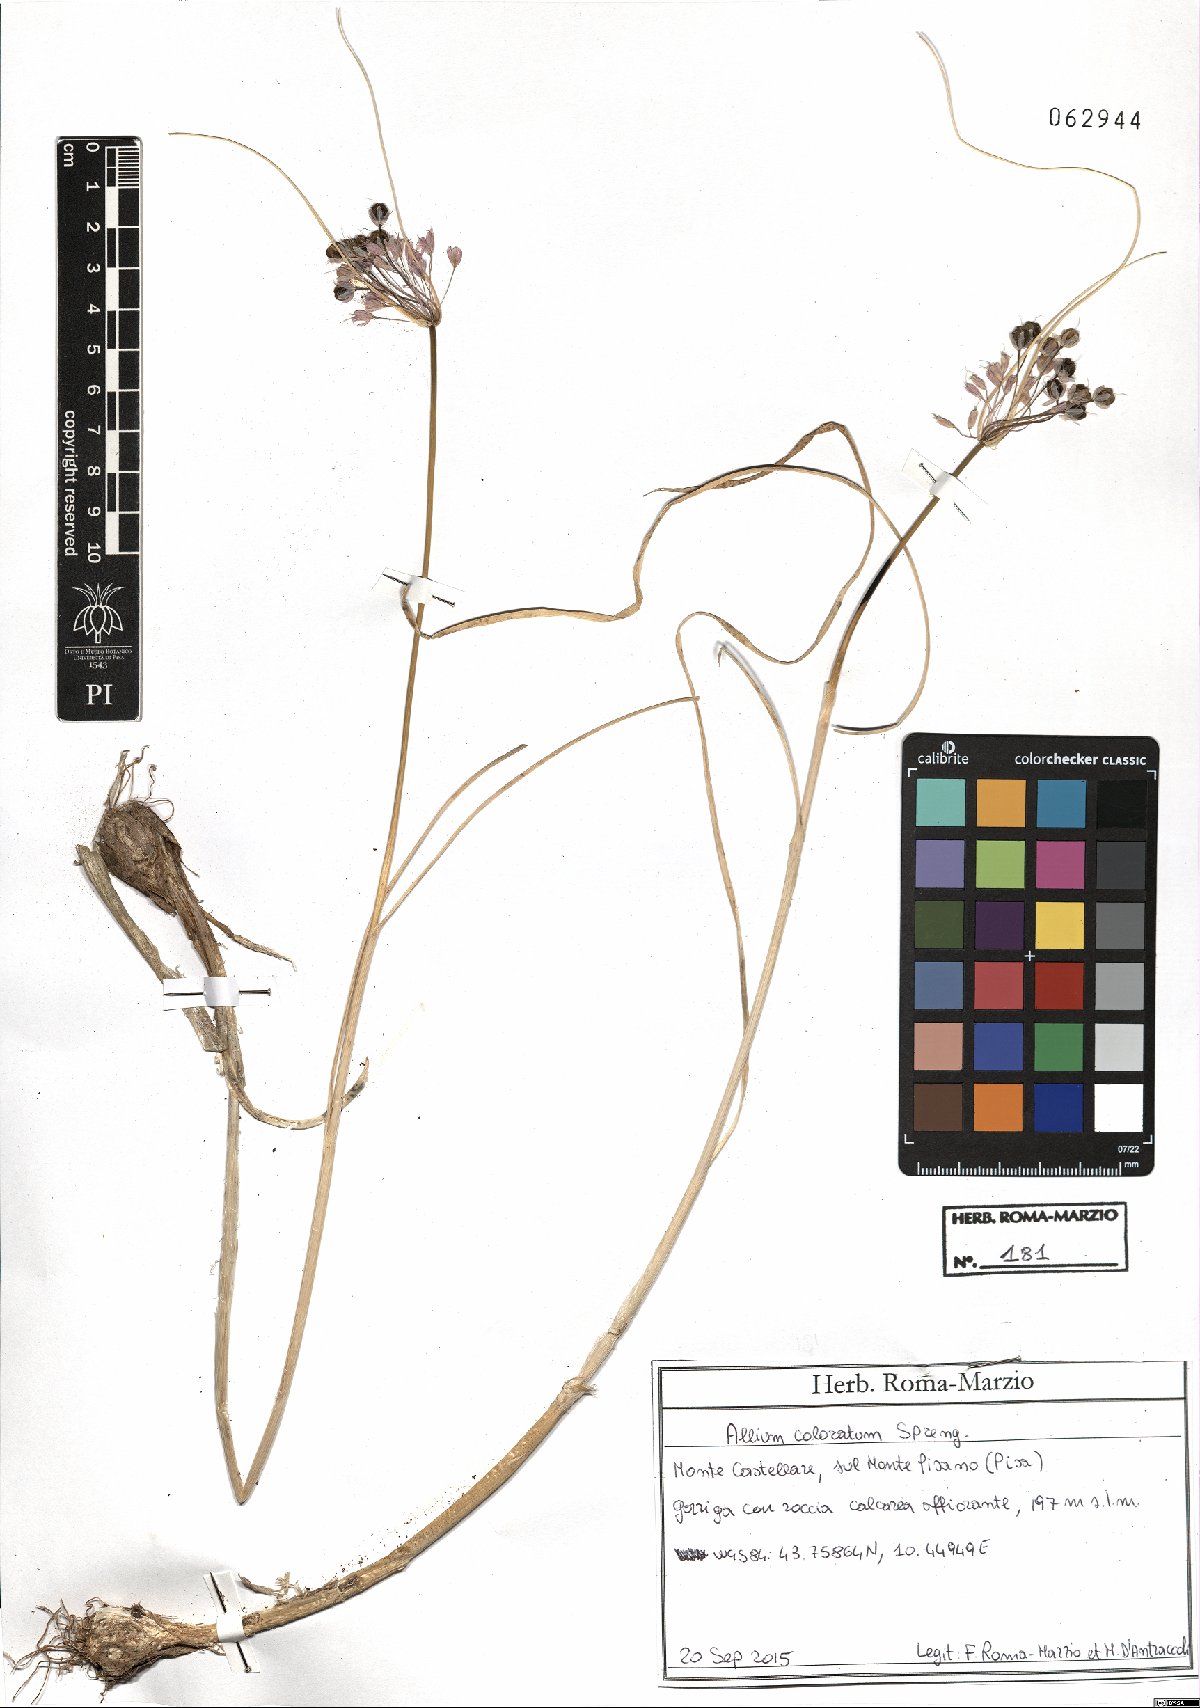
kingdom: Plantae
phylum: Tracheophyta
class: Liliopsida
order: Asparagales
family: Amaryllidaceae
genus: Allium
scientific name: Allium coloratum
